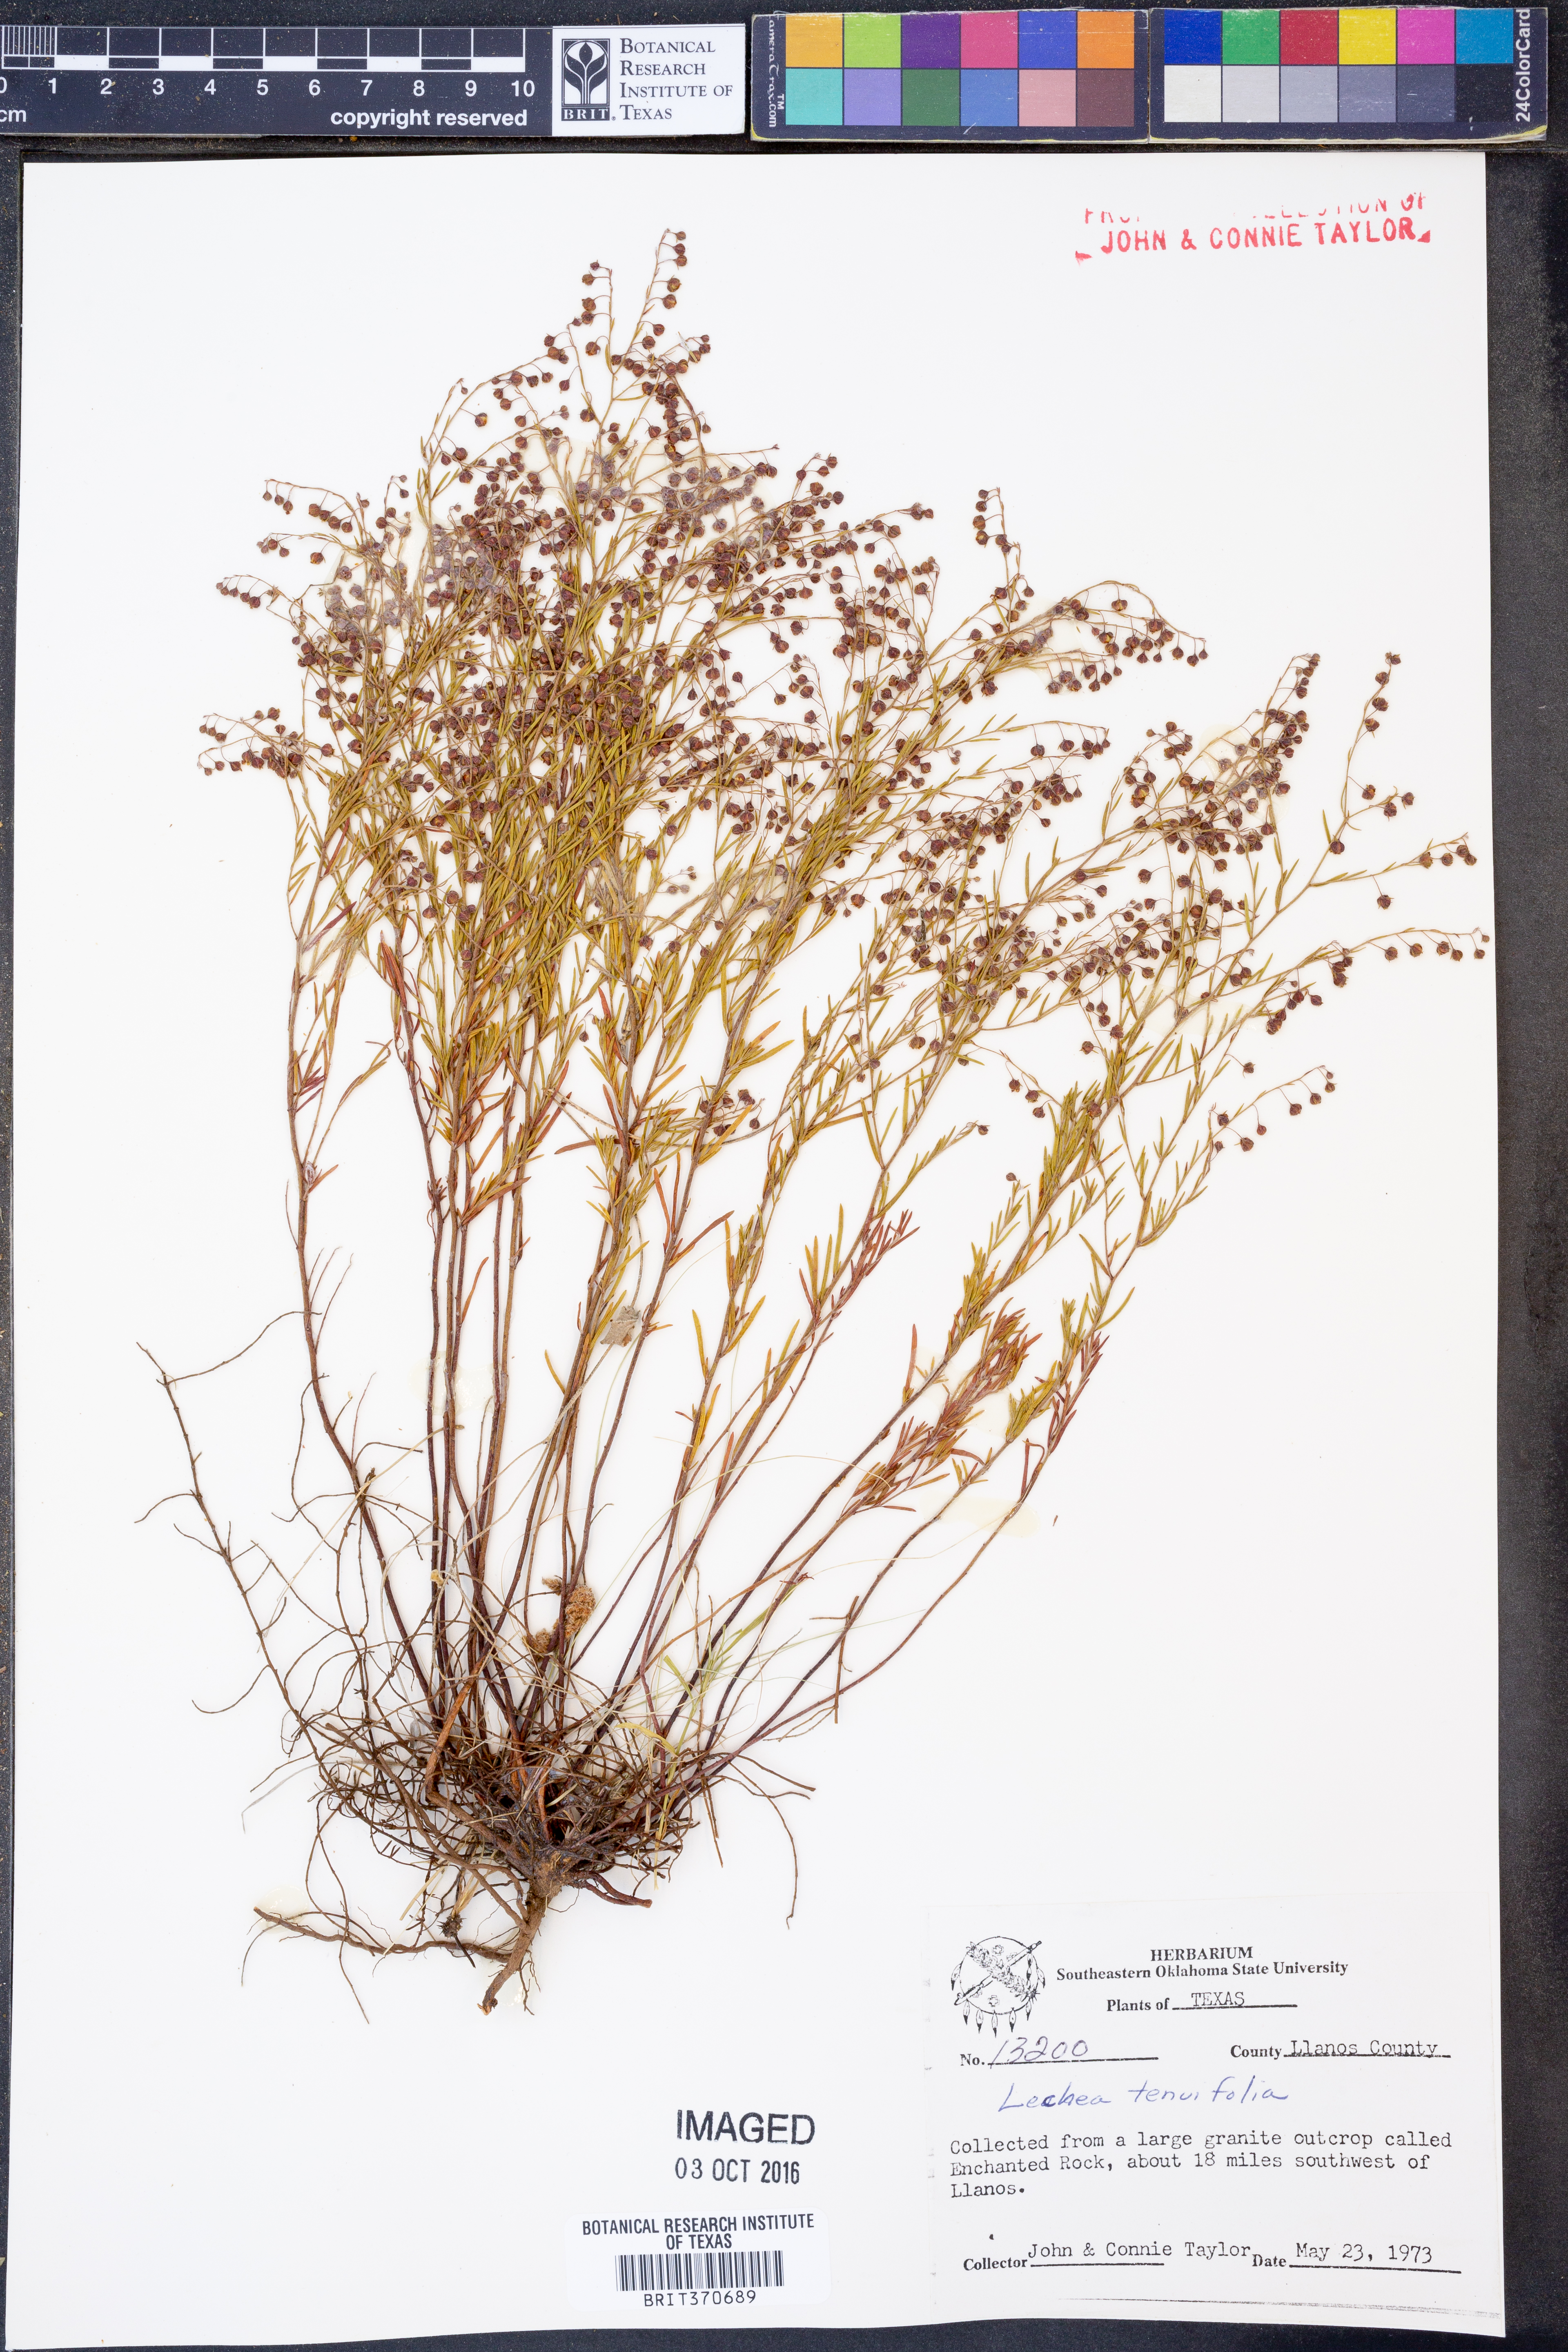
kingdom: Plantae
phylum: Tracheophyta
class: Magnoliopsida
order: Malvales
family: Cistaceae
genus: Lechea
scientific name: Lechea tenuifolia
